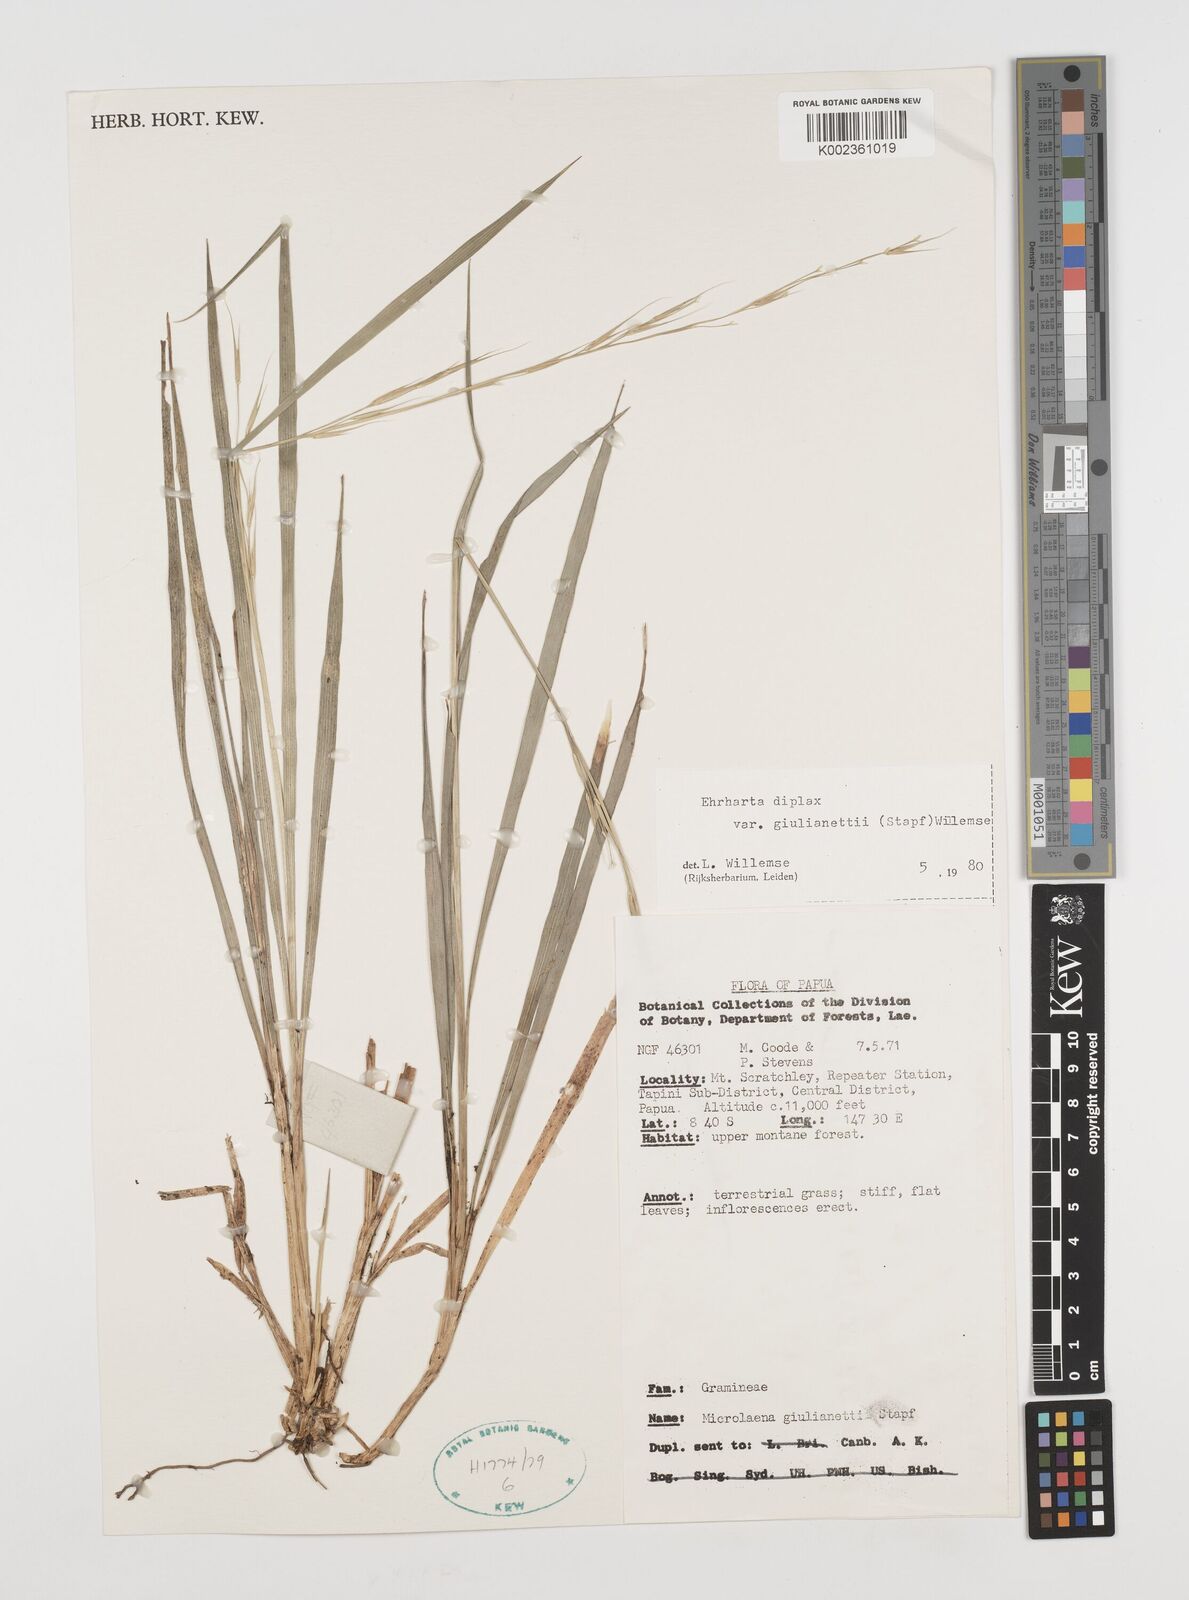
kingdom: Plantae
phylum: Tracheophyta
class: Liliopsida
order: Poales
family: Poaceae
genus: Ehrharta
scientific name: Ehrharta diplax
